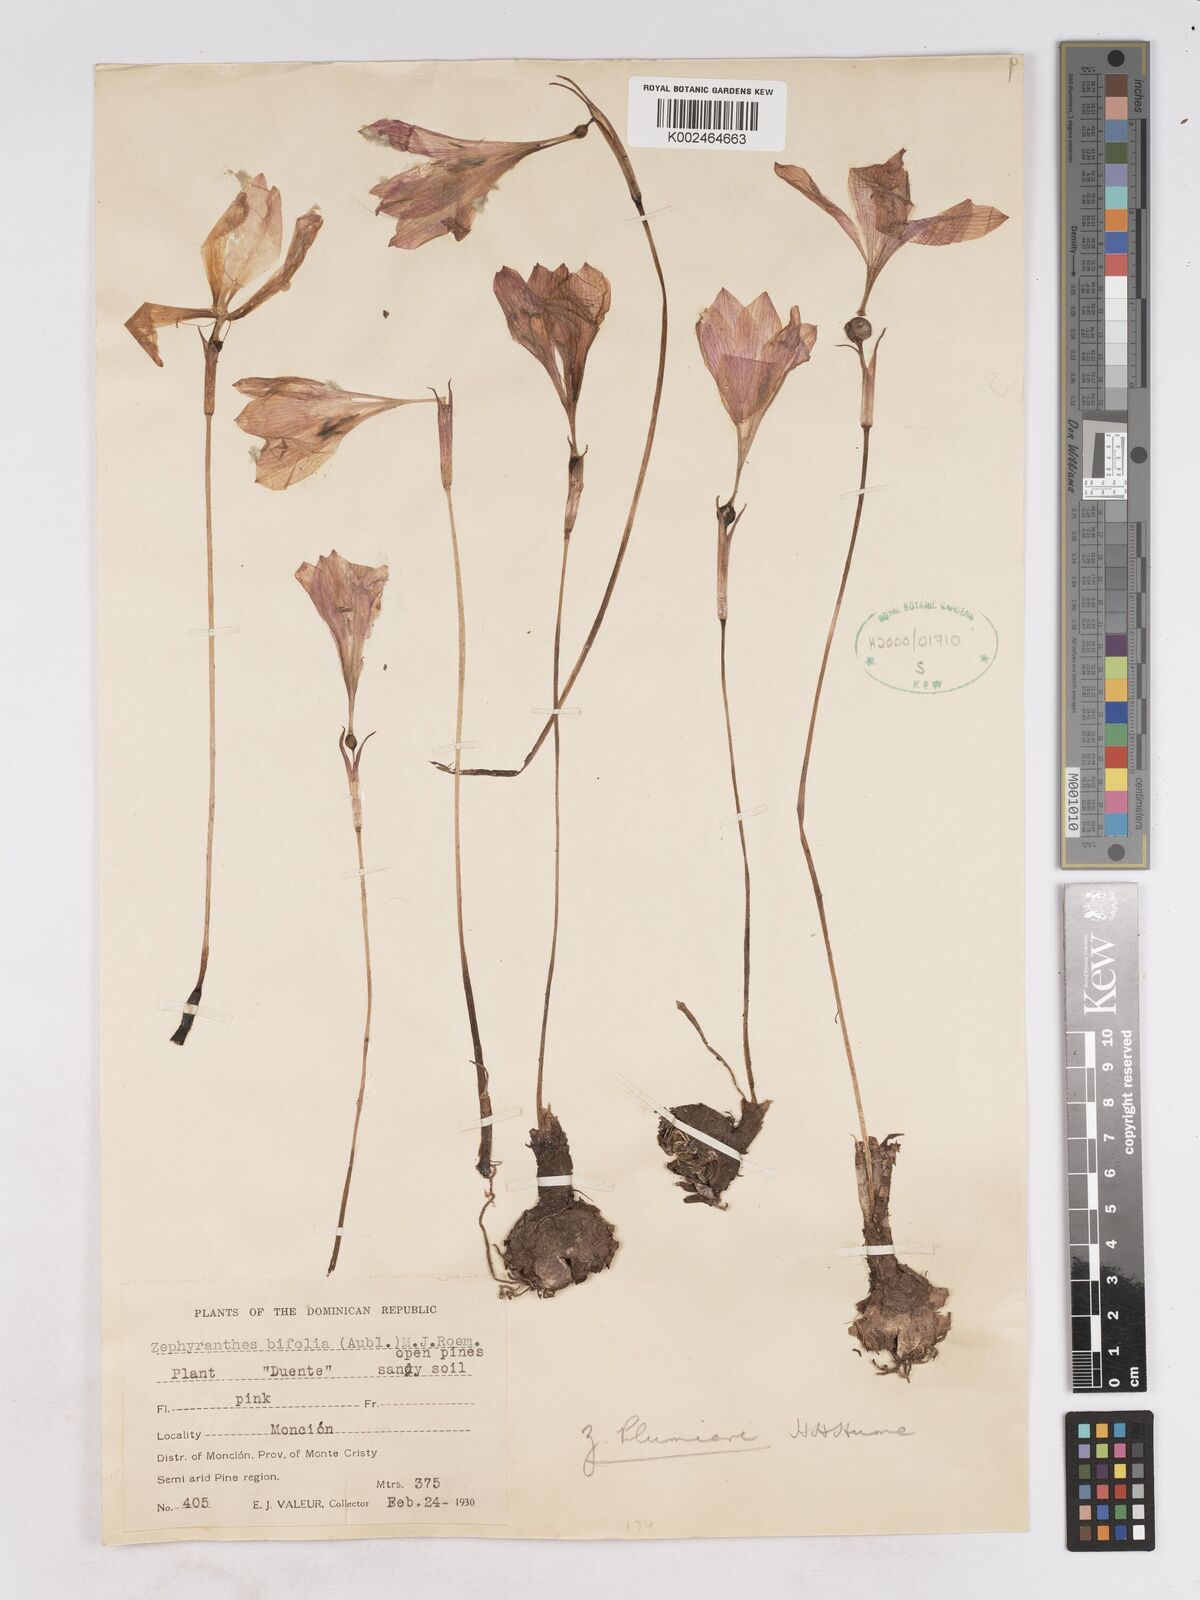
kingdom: Plantae
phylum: Tracheophyta
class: Liliopsida
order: Asparagales
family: Amaryllidaceae
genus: Zephyranthes
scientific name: Zephyranthes bifolia
